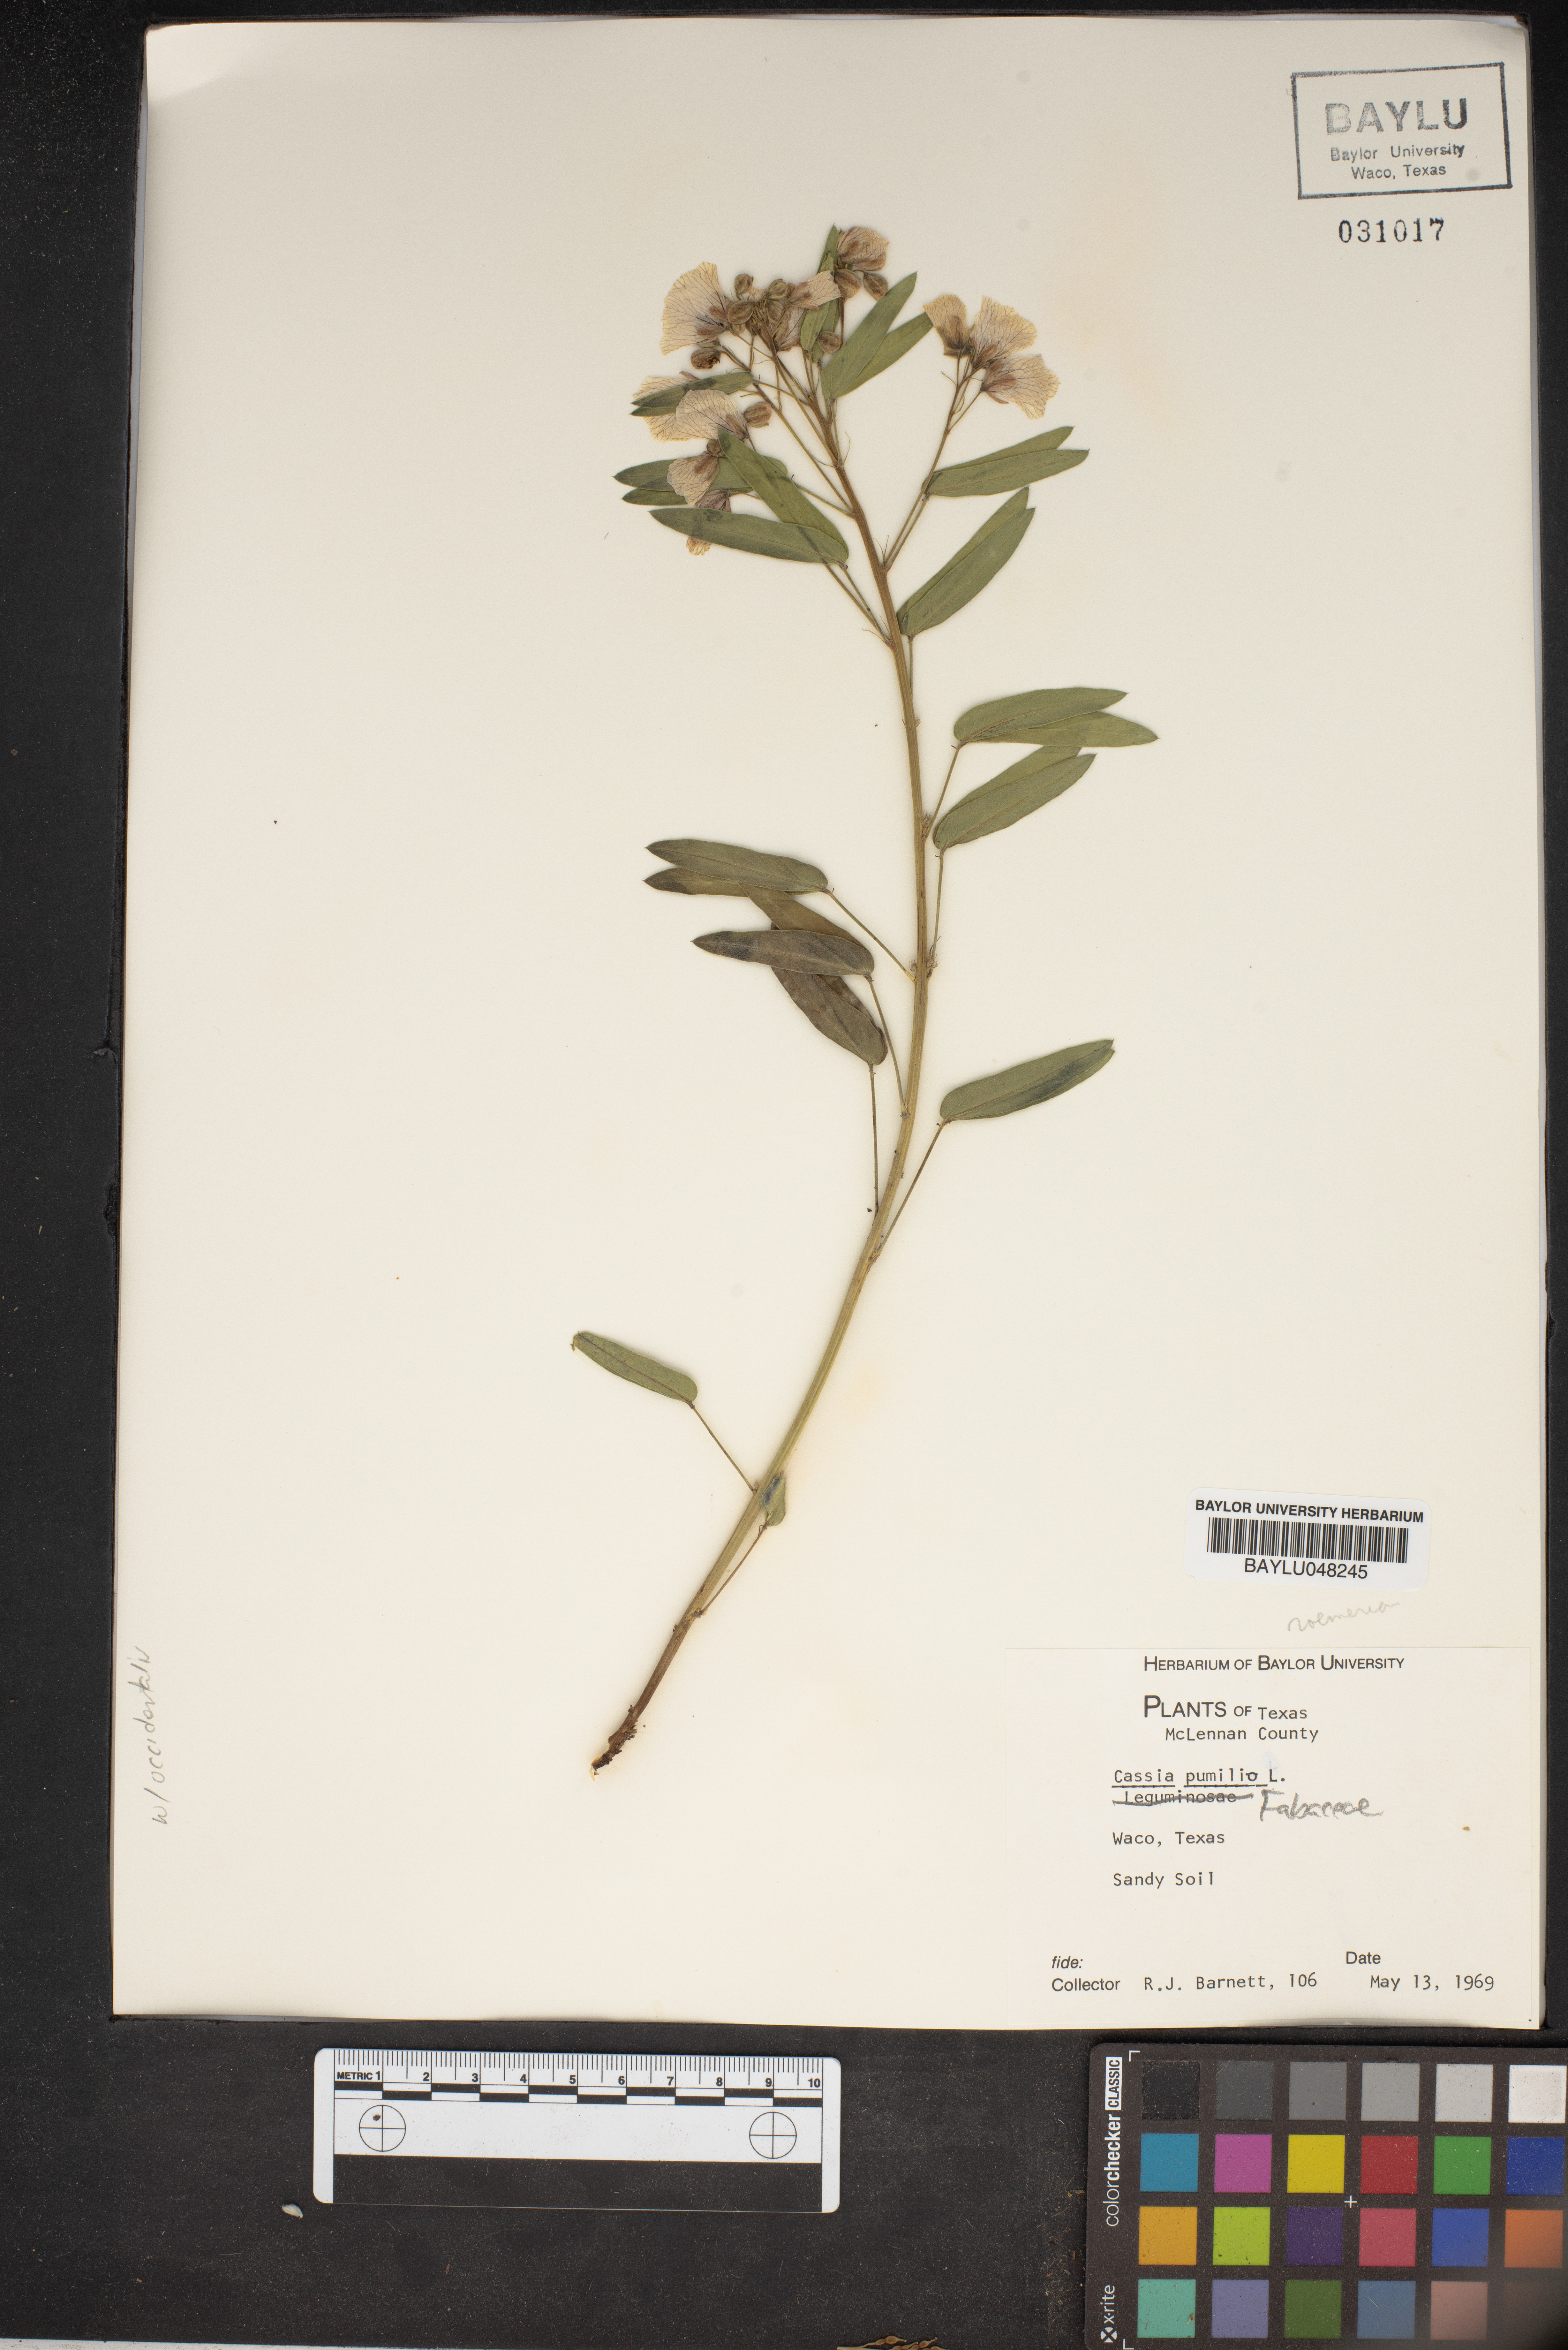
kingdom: Plantae
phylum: Tracheophyta
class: Magnoliopsida
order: Fabales
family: Fabaceae
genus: Senna
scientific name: Senna pumilio
